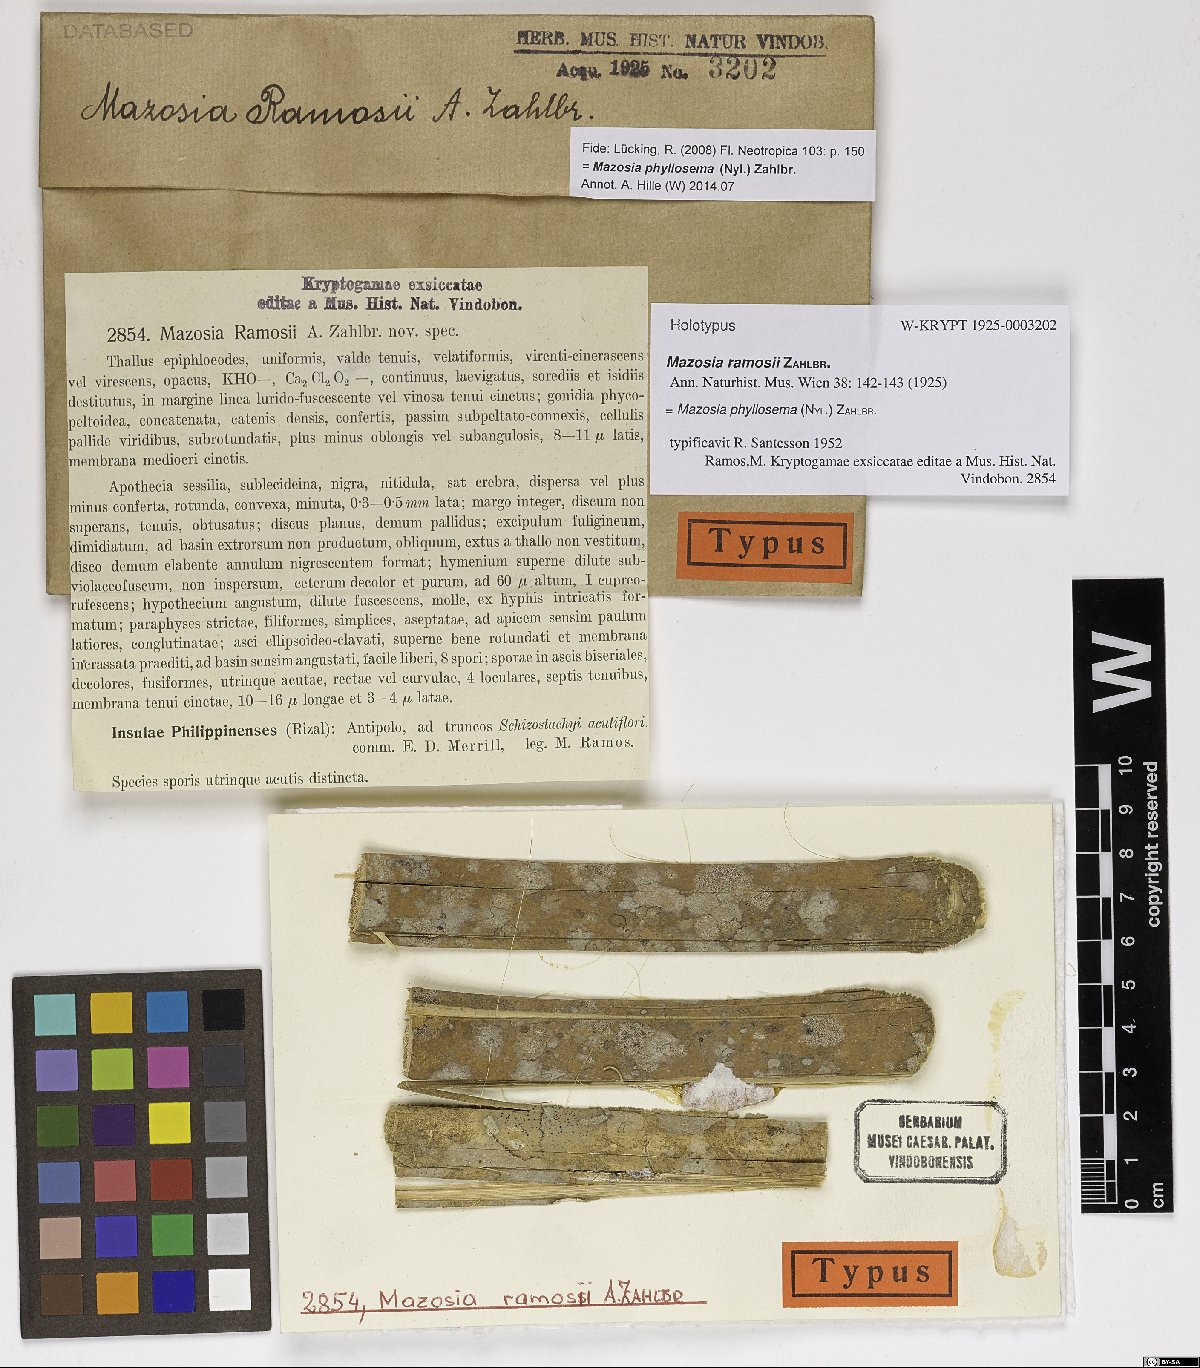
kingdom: Fungi
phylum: Ascomycota
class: Arthoniomycetes
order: Arthoniales
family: Roccellaceae
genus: Mazosia
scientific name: Mazosia ramosii
